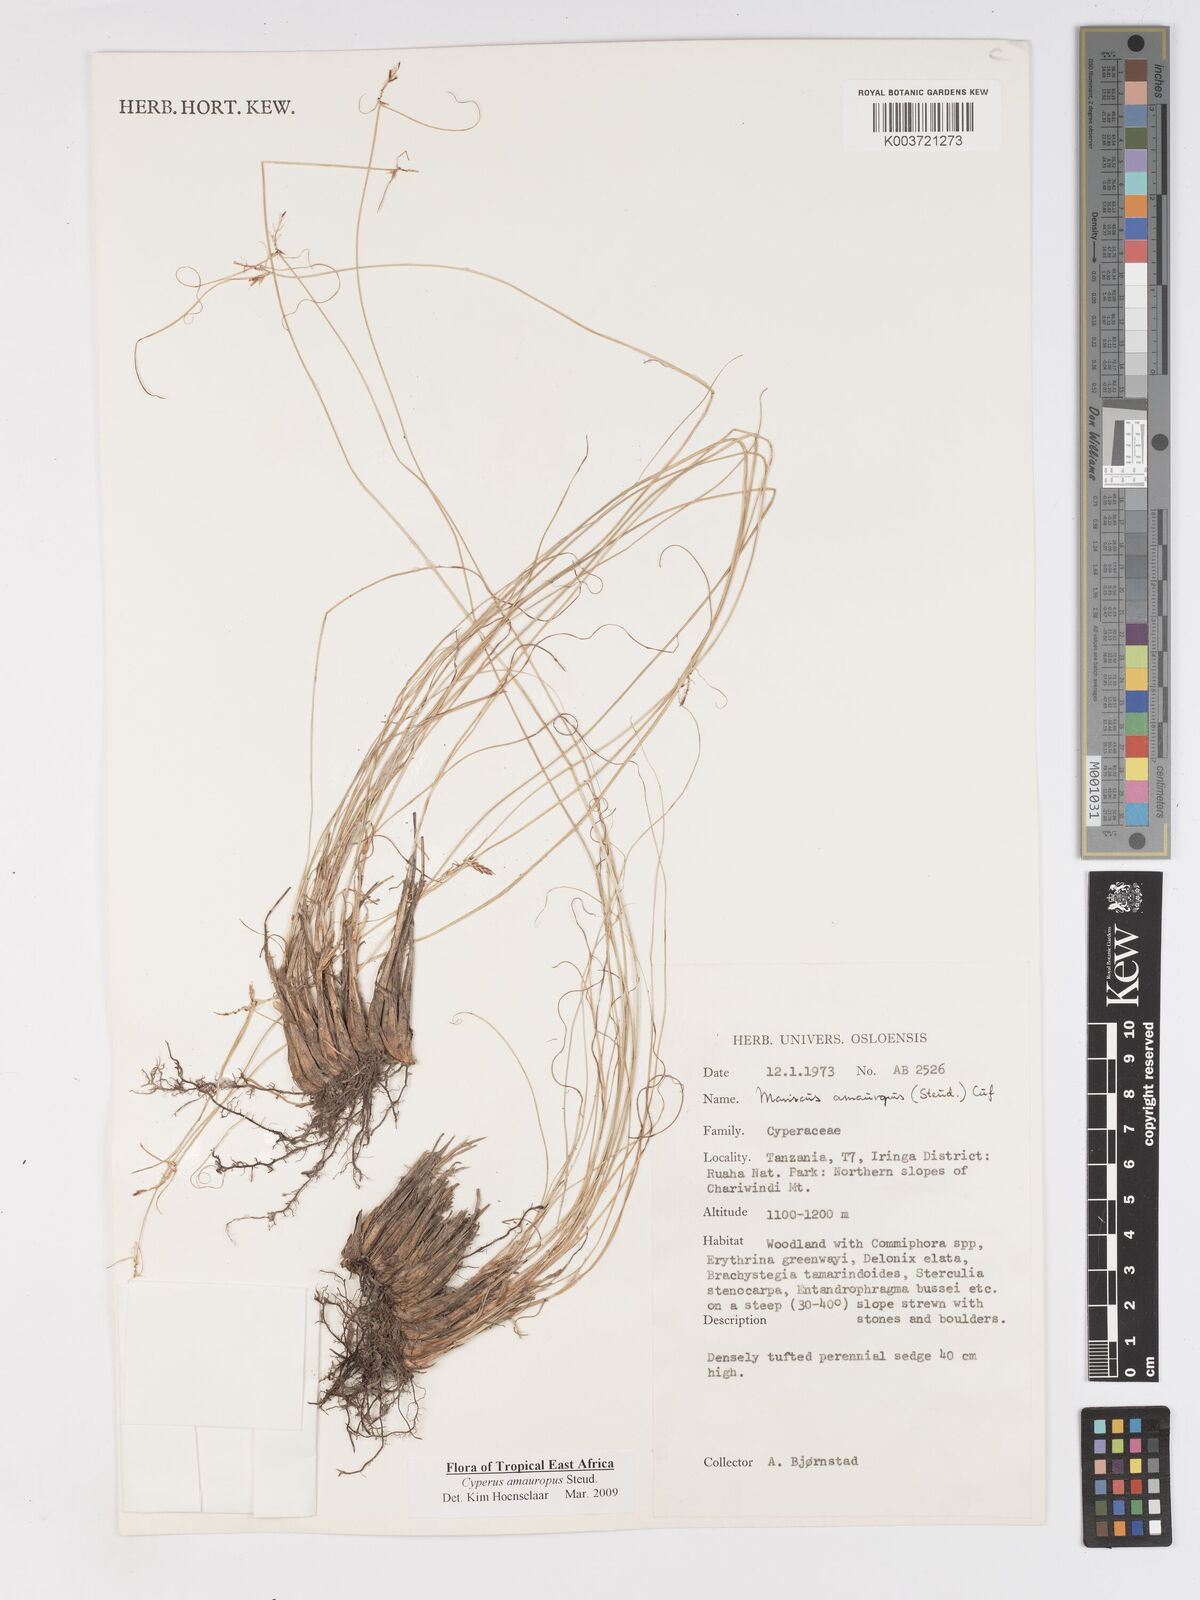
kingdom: Plantae
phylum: Tracheophyta
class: Liliopsida
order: Poales
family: Cyperaceae
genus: Cyperus
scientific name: Cyperus amauropus
